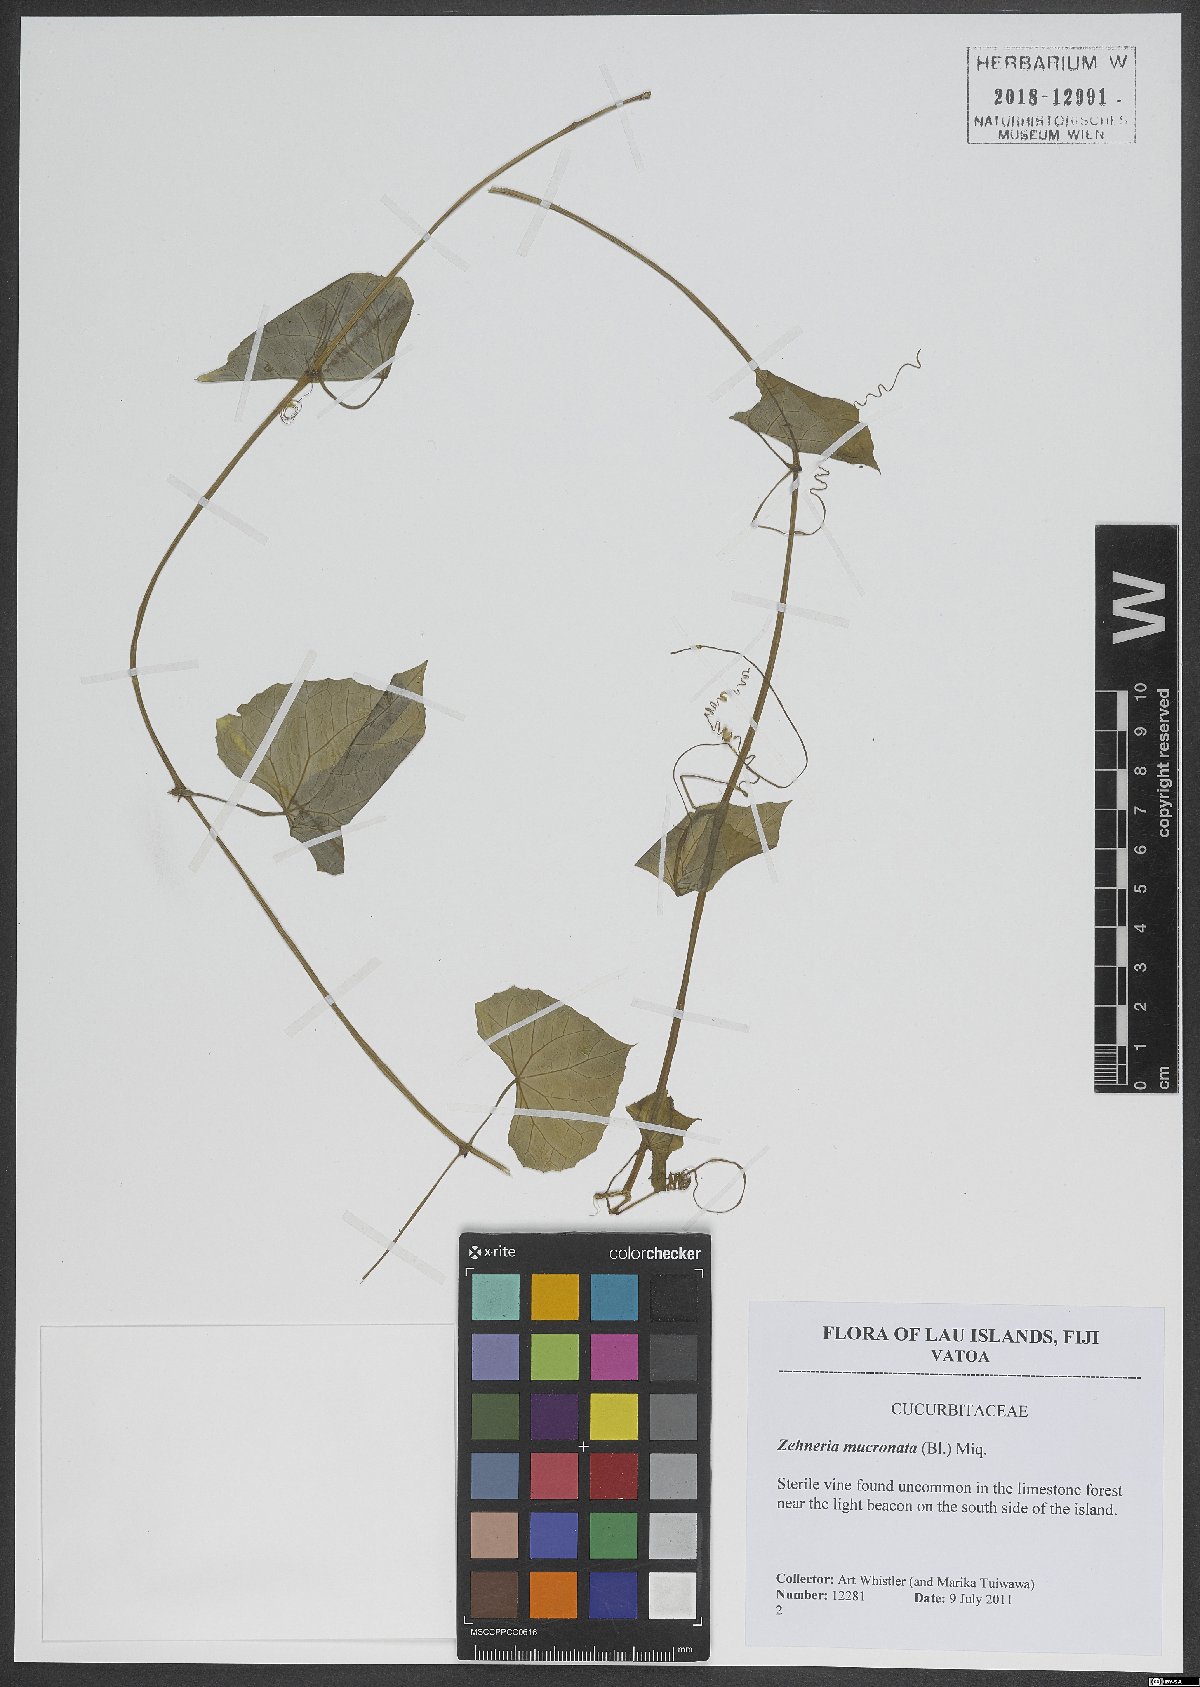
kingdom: Plantae
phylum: Tracheophyta
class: Magnoliopsida
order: Cucurbitales
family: Cucurbitaceae
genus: Zehneria
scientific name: Zehneria mucronata
